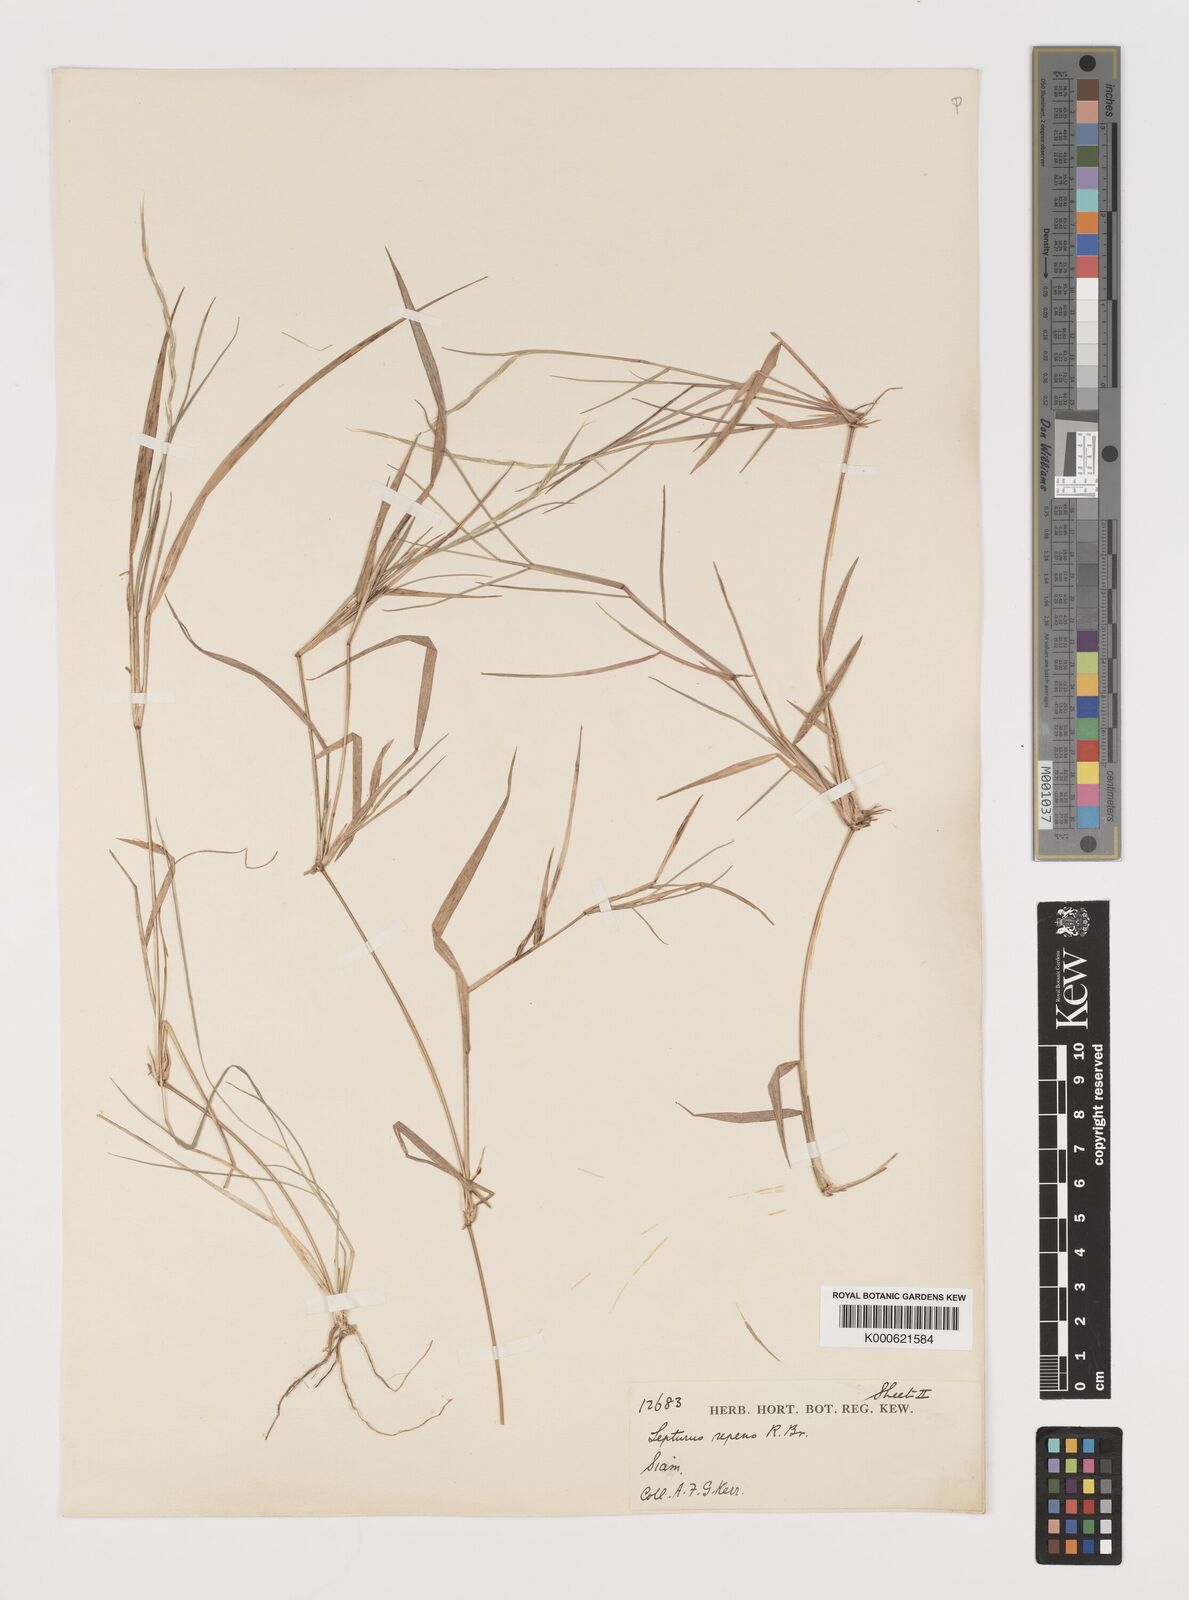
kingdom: Plantae
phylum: Tracheophyta
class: Liliopsida
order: Poales
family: Poaceae
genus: Lepturus
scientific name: Lepturus repens
